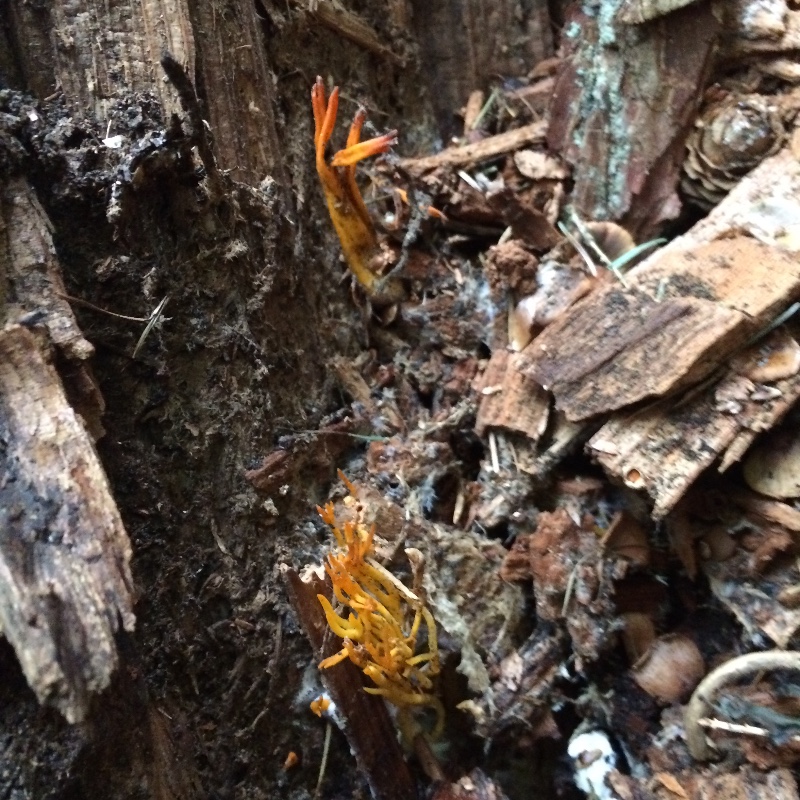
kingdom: Fungi
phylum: Basidiomycota
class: Dacrymycetes
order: Dacrymycetales
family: Dacrymycetaceae
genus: Calocera
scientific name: Calocera viscosa
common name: almindelig guldgaffel
